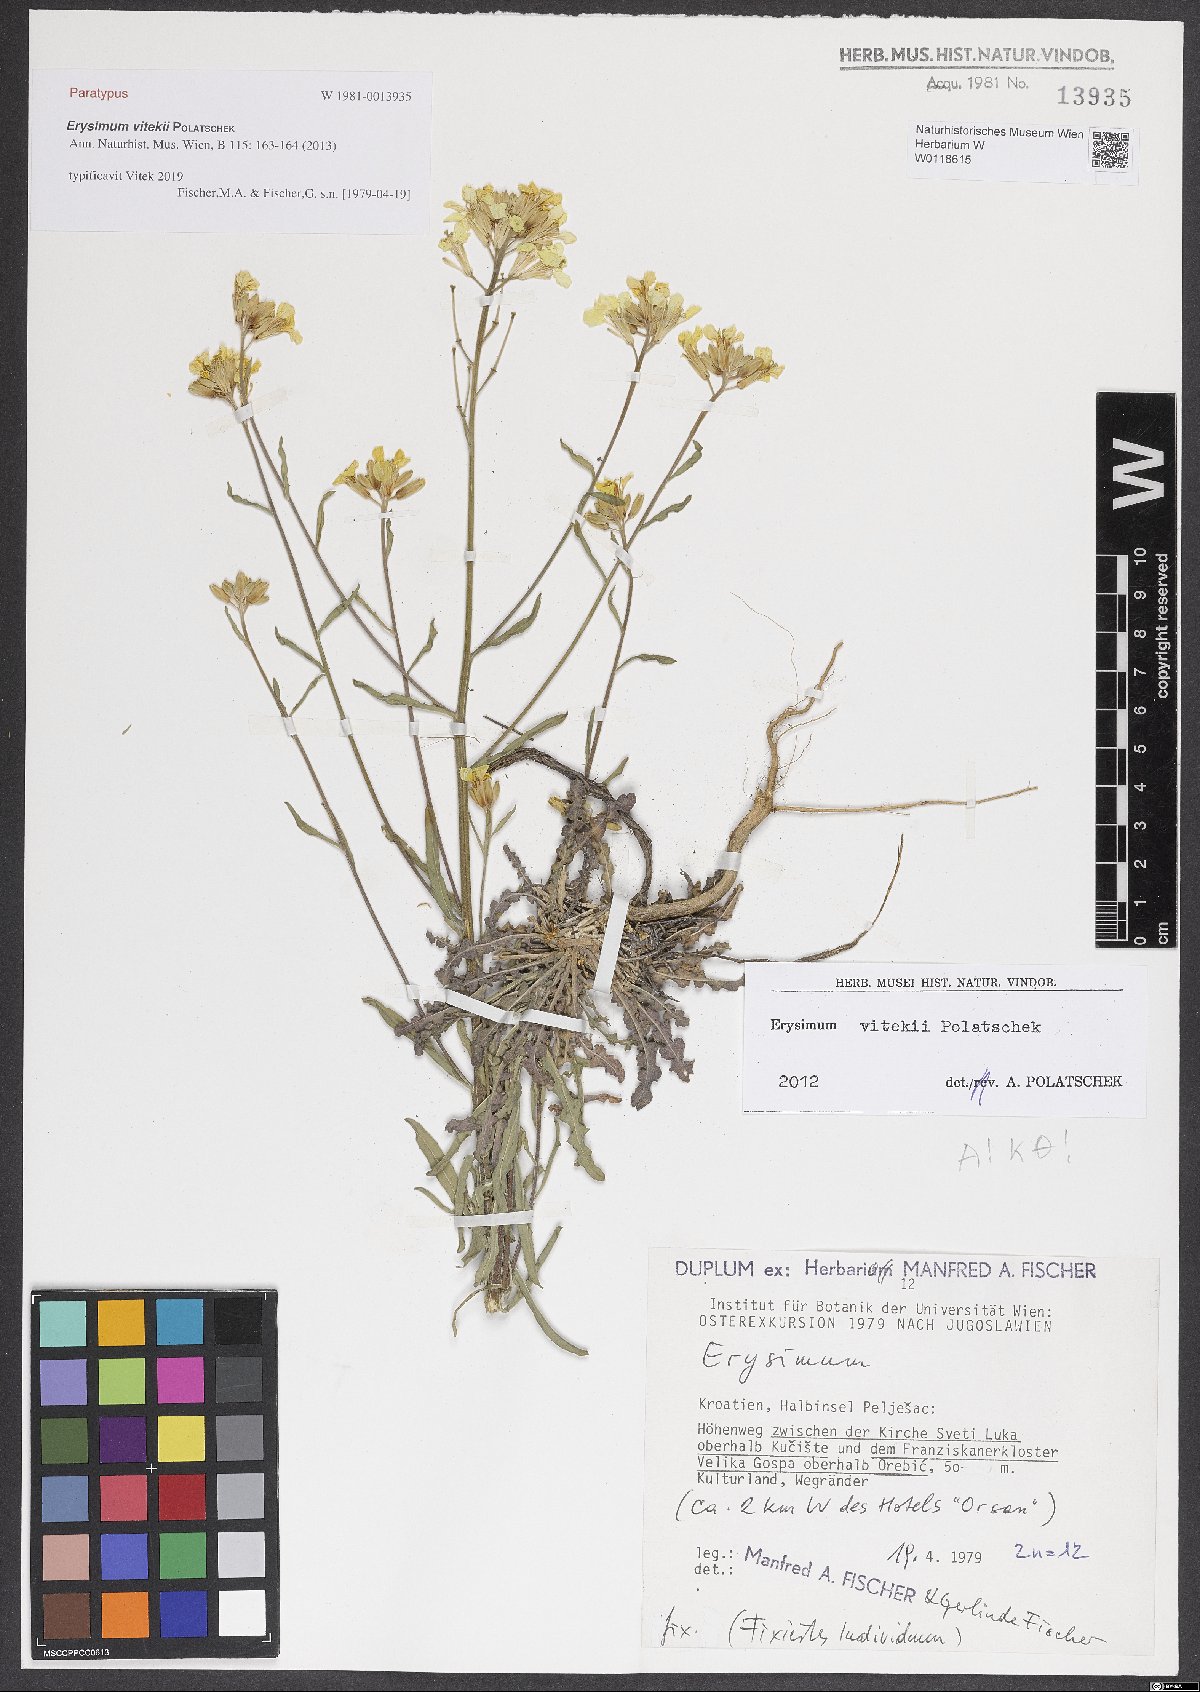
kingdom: Plantae
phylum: Tracheophyta
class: Magnoliopsida
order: Brassicales
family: Brassicaceae
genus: Erysimum
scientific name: Erysimum vitekii
